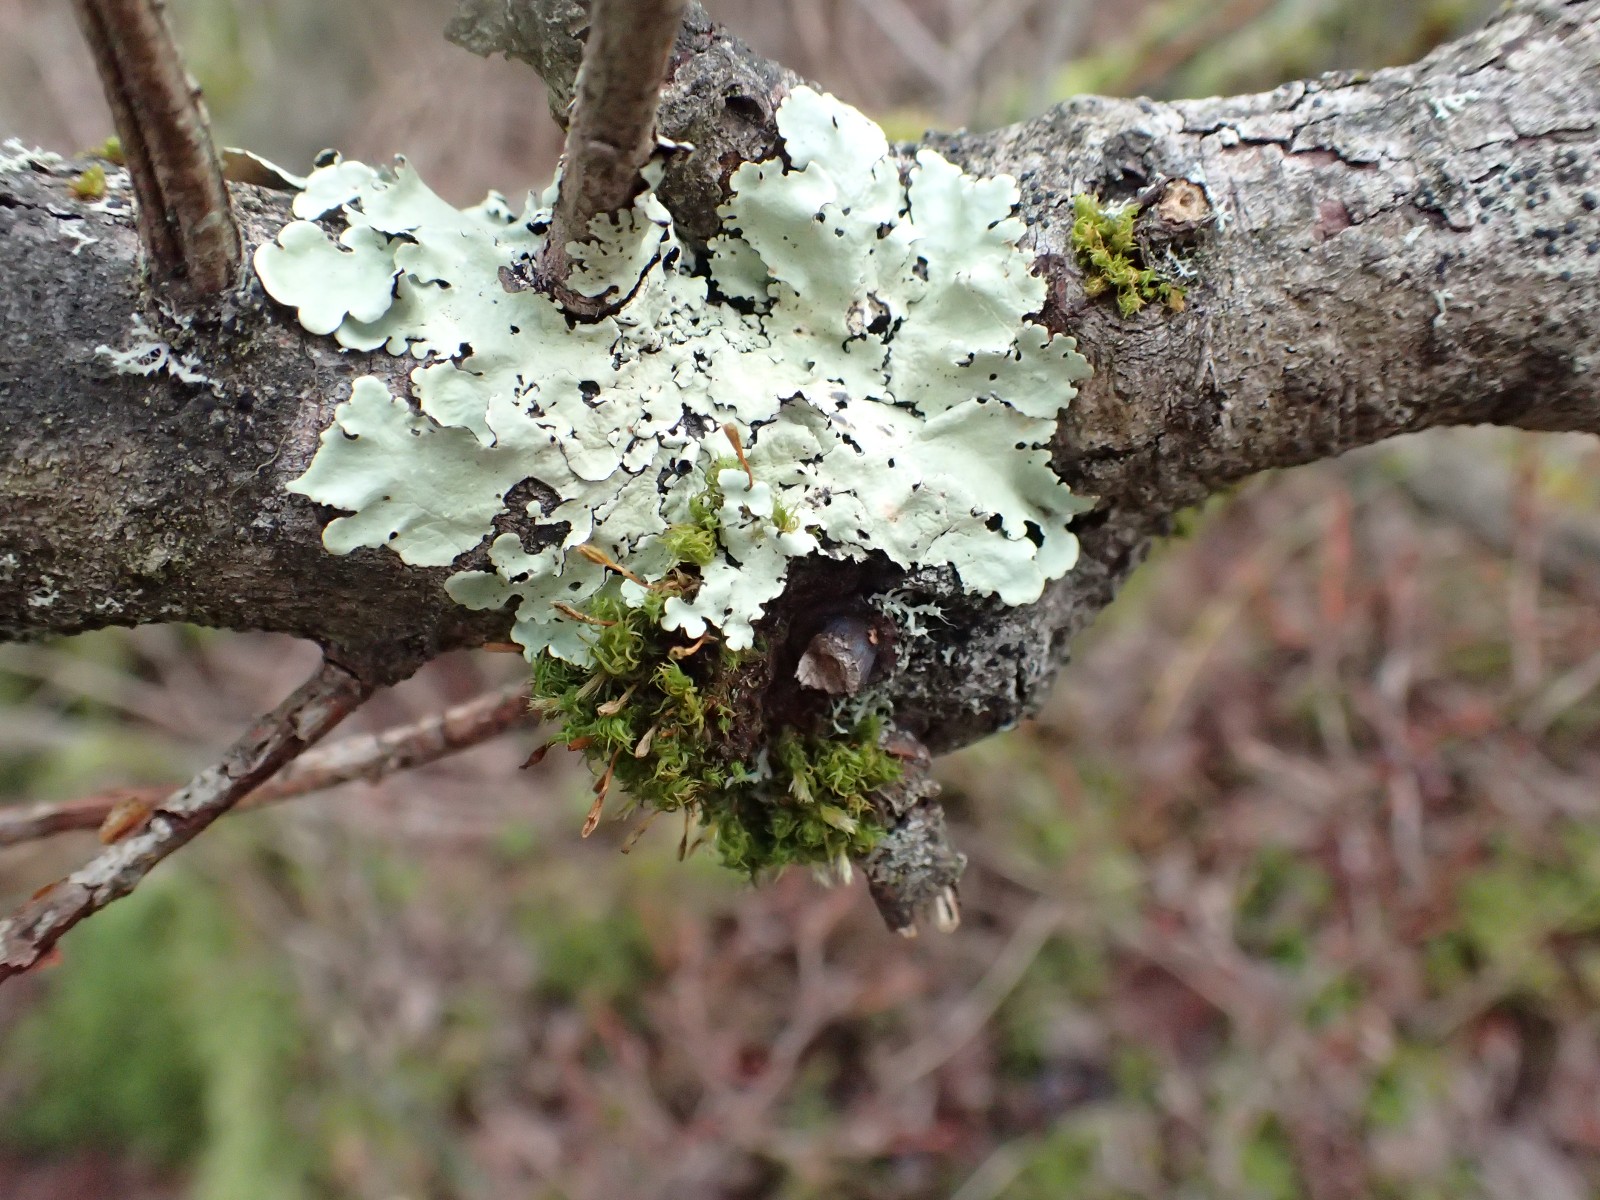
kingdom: Fungi
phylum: Ascomycota
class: Lecanoromycetes
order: Lecanorales
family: Parmeliaceae
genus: Flavoparmelia
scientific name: Flavoparmelia caperata
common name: gulgrøn skållav
